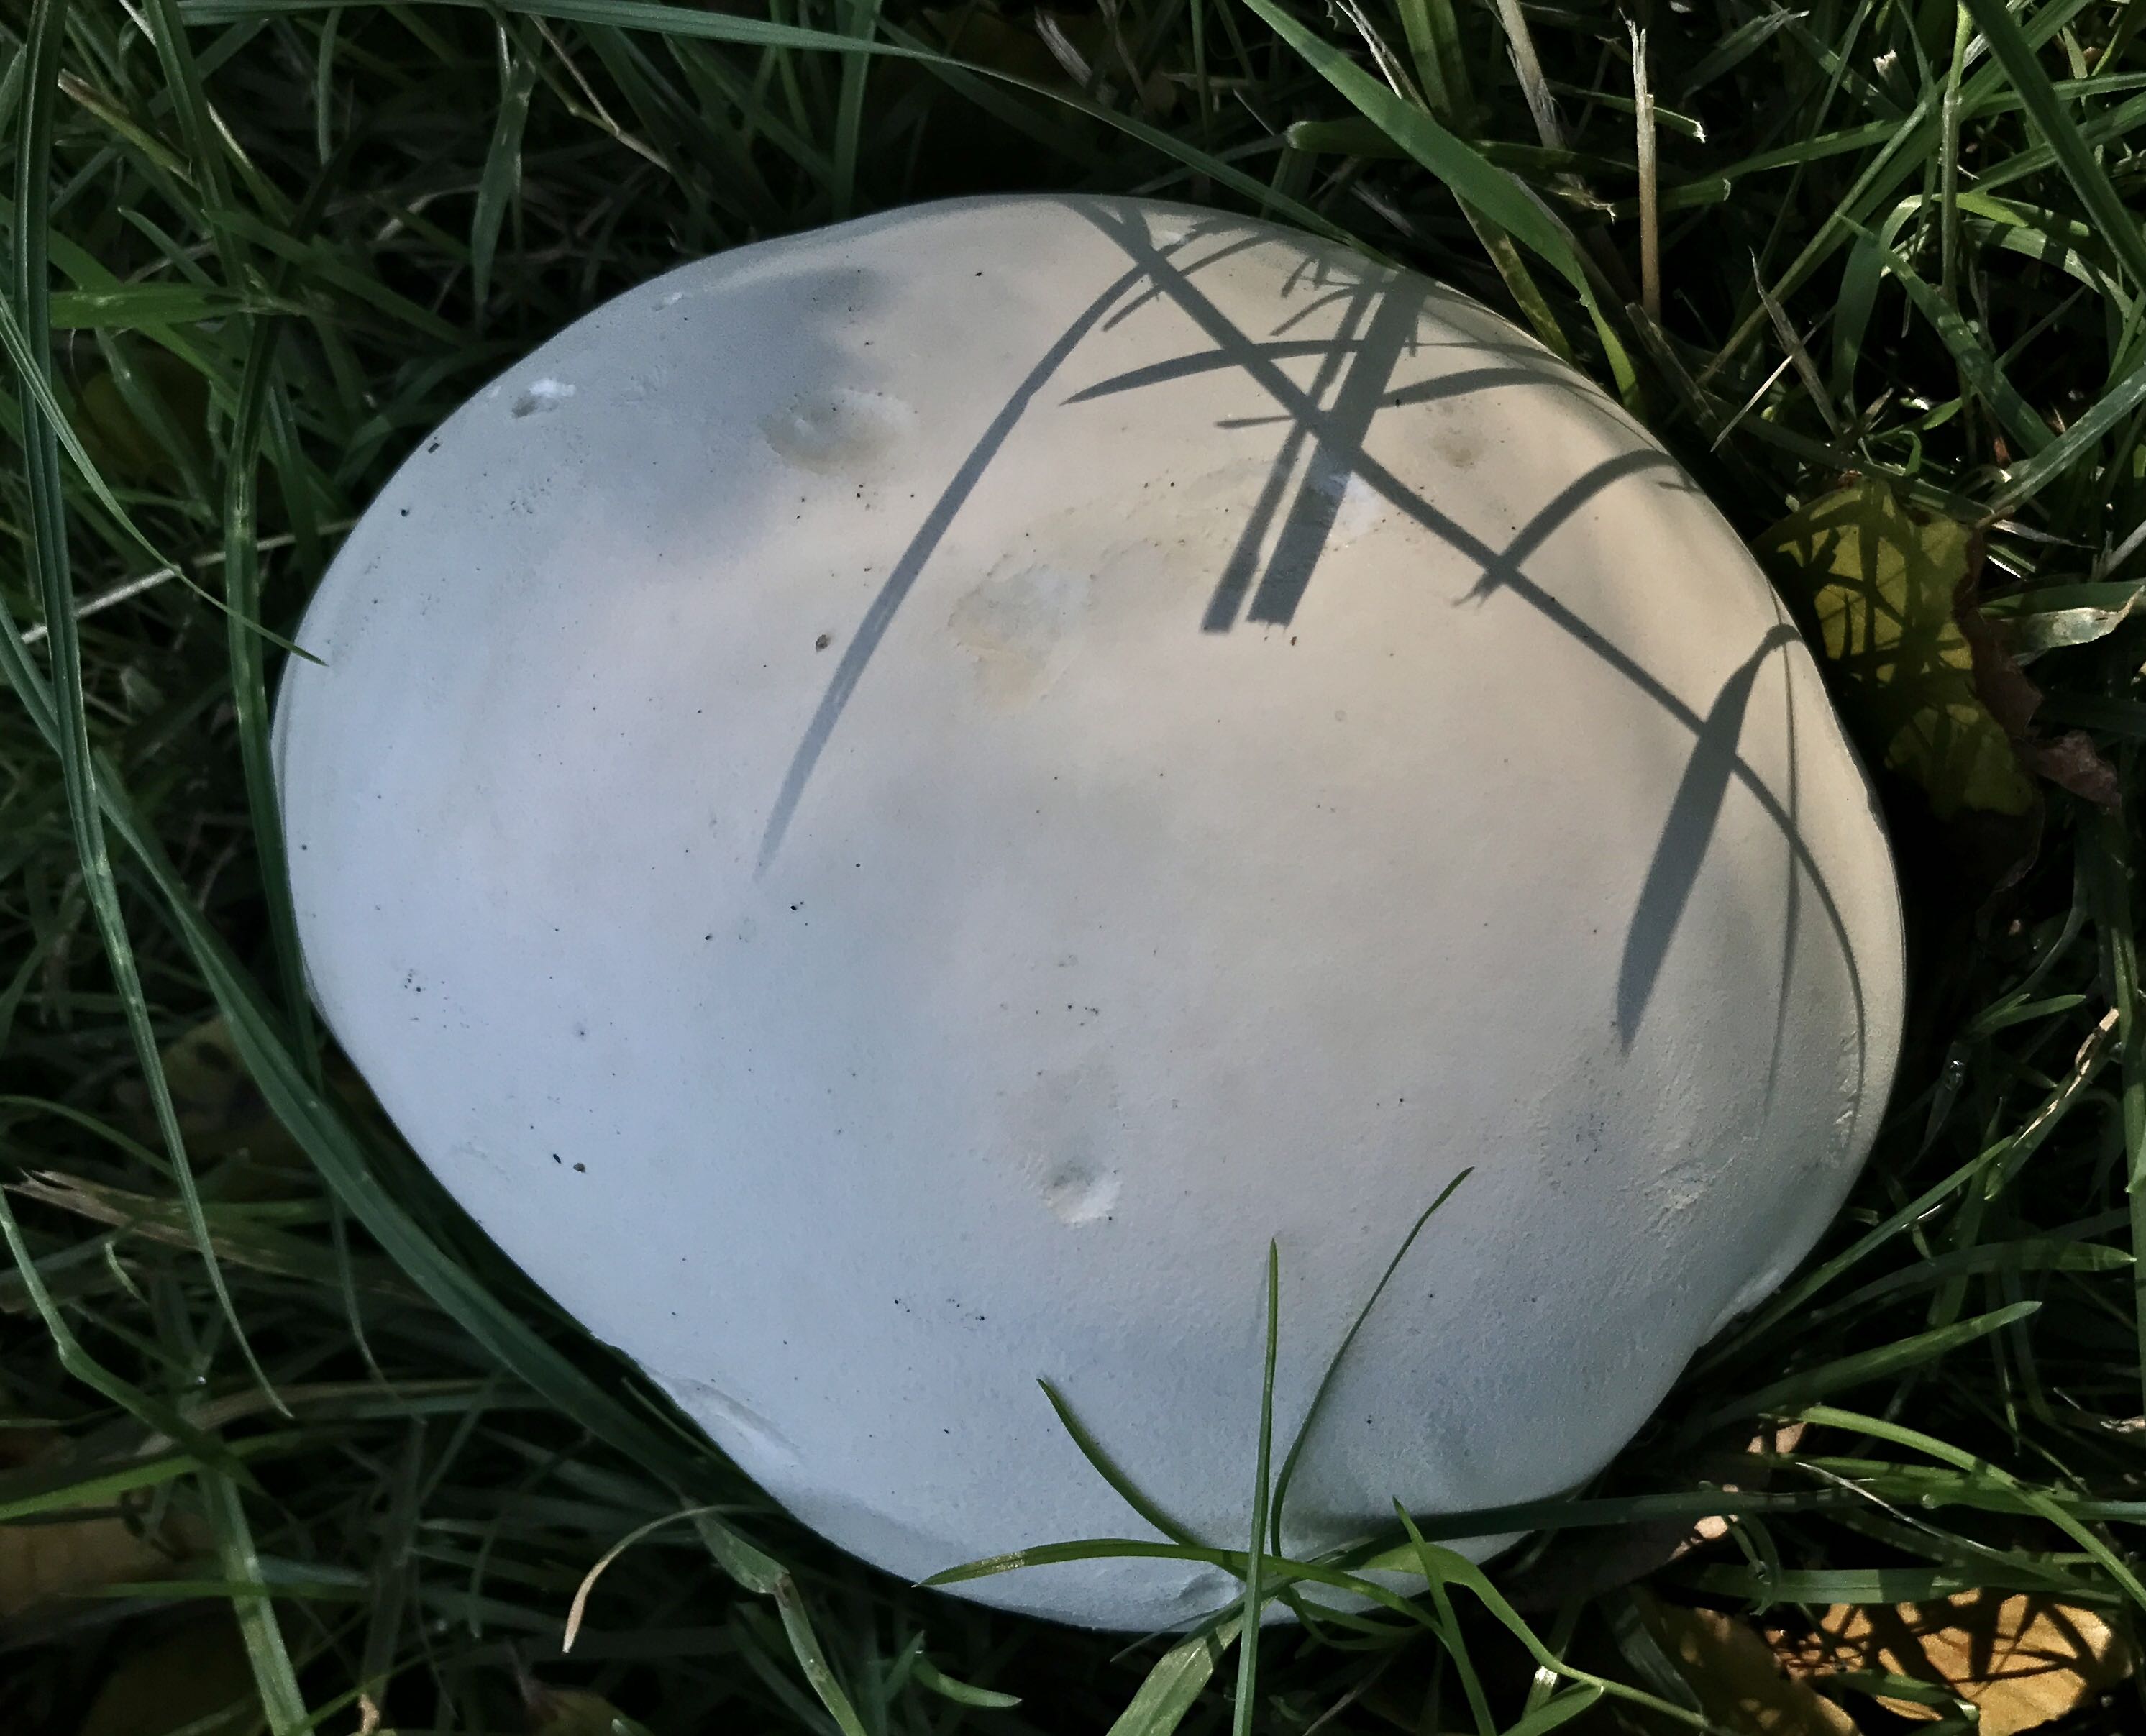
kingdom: Fungi
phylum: Basidiomycota
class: Agaricomycetes
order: Agaricales
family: Lycoperdaceae
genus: Calvatia
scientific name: Calvatia gigantea
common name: kæmpestøvbold
